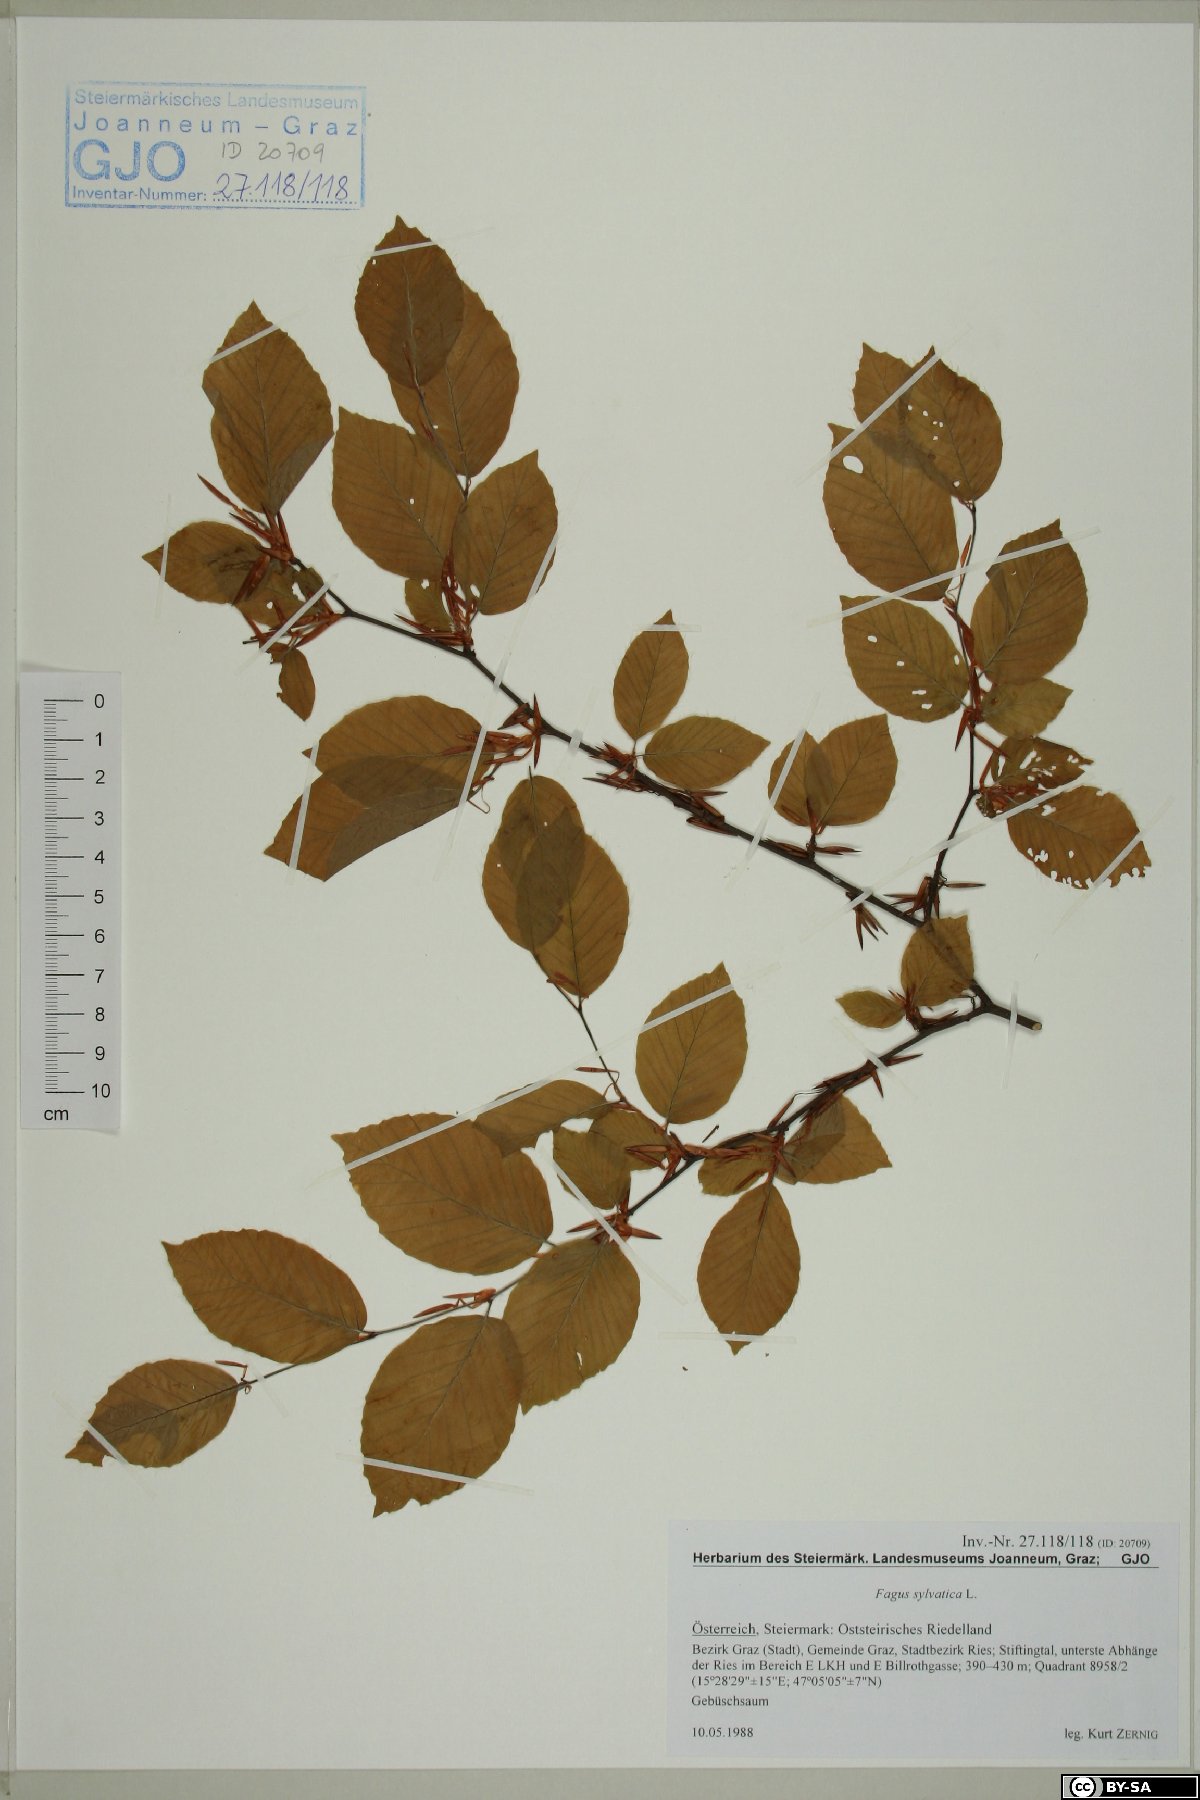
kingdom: Plantae
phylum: Tracheophyta
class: Magnoliopsida
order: Fagales
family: Fagaceae
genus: Fagus
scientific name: Fagus sylvatica
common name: Beech
